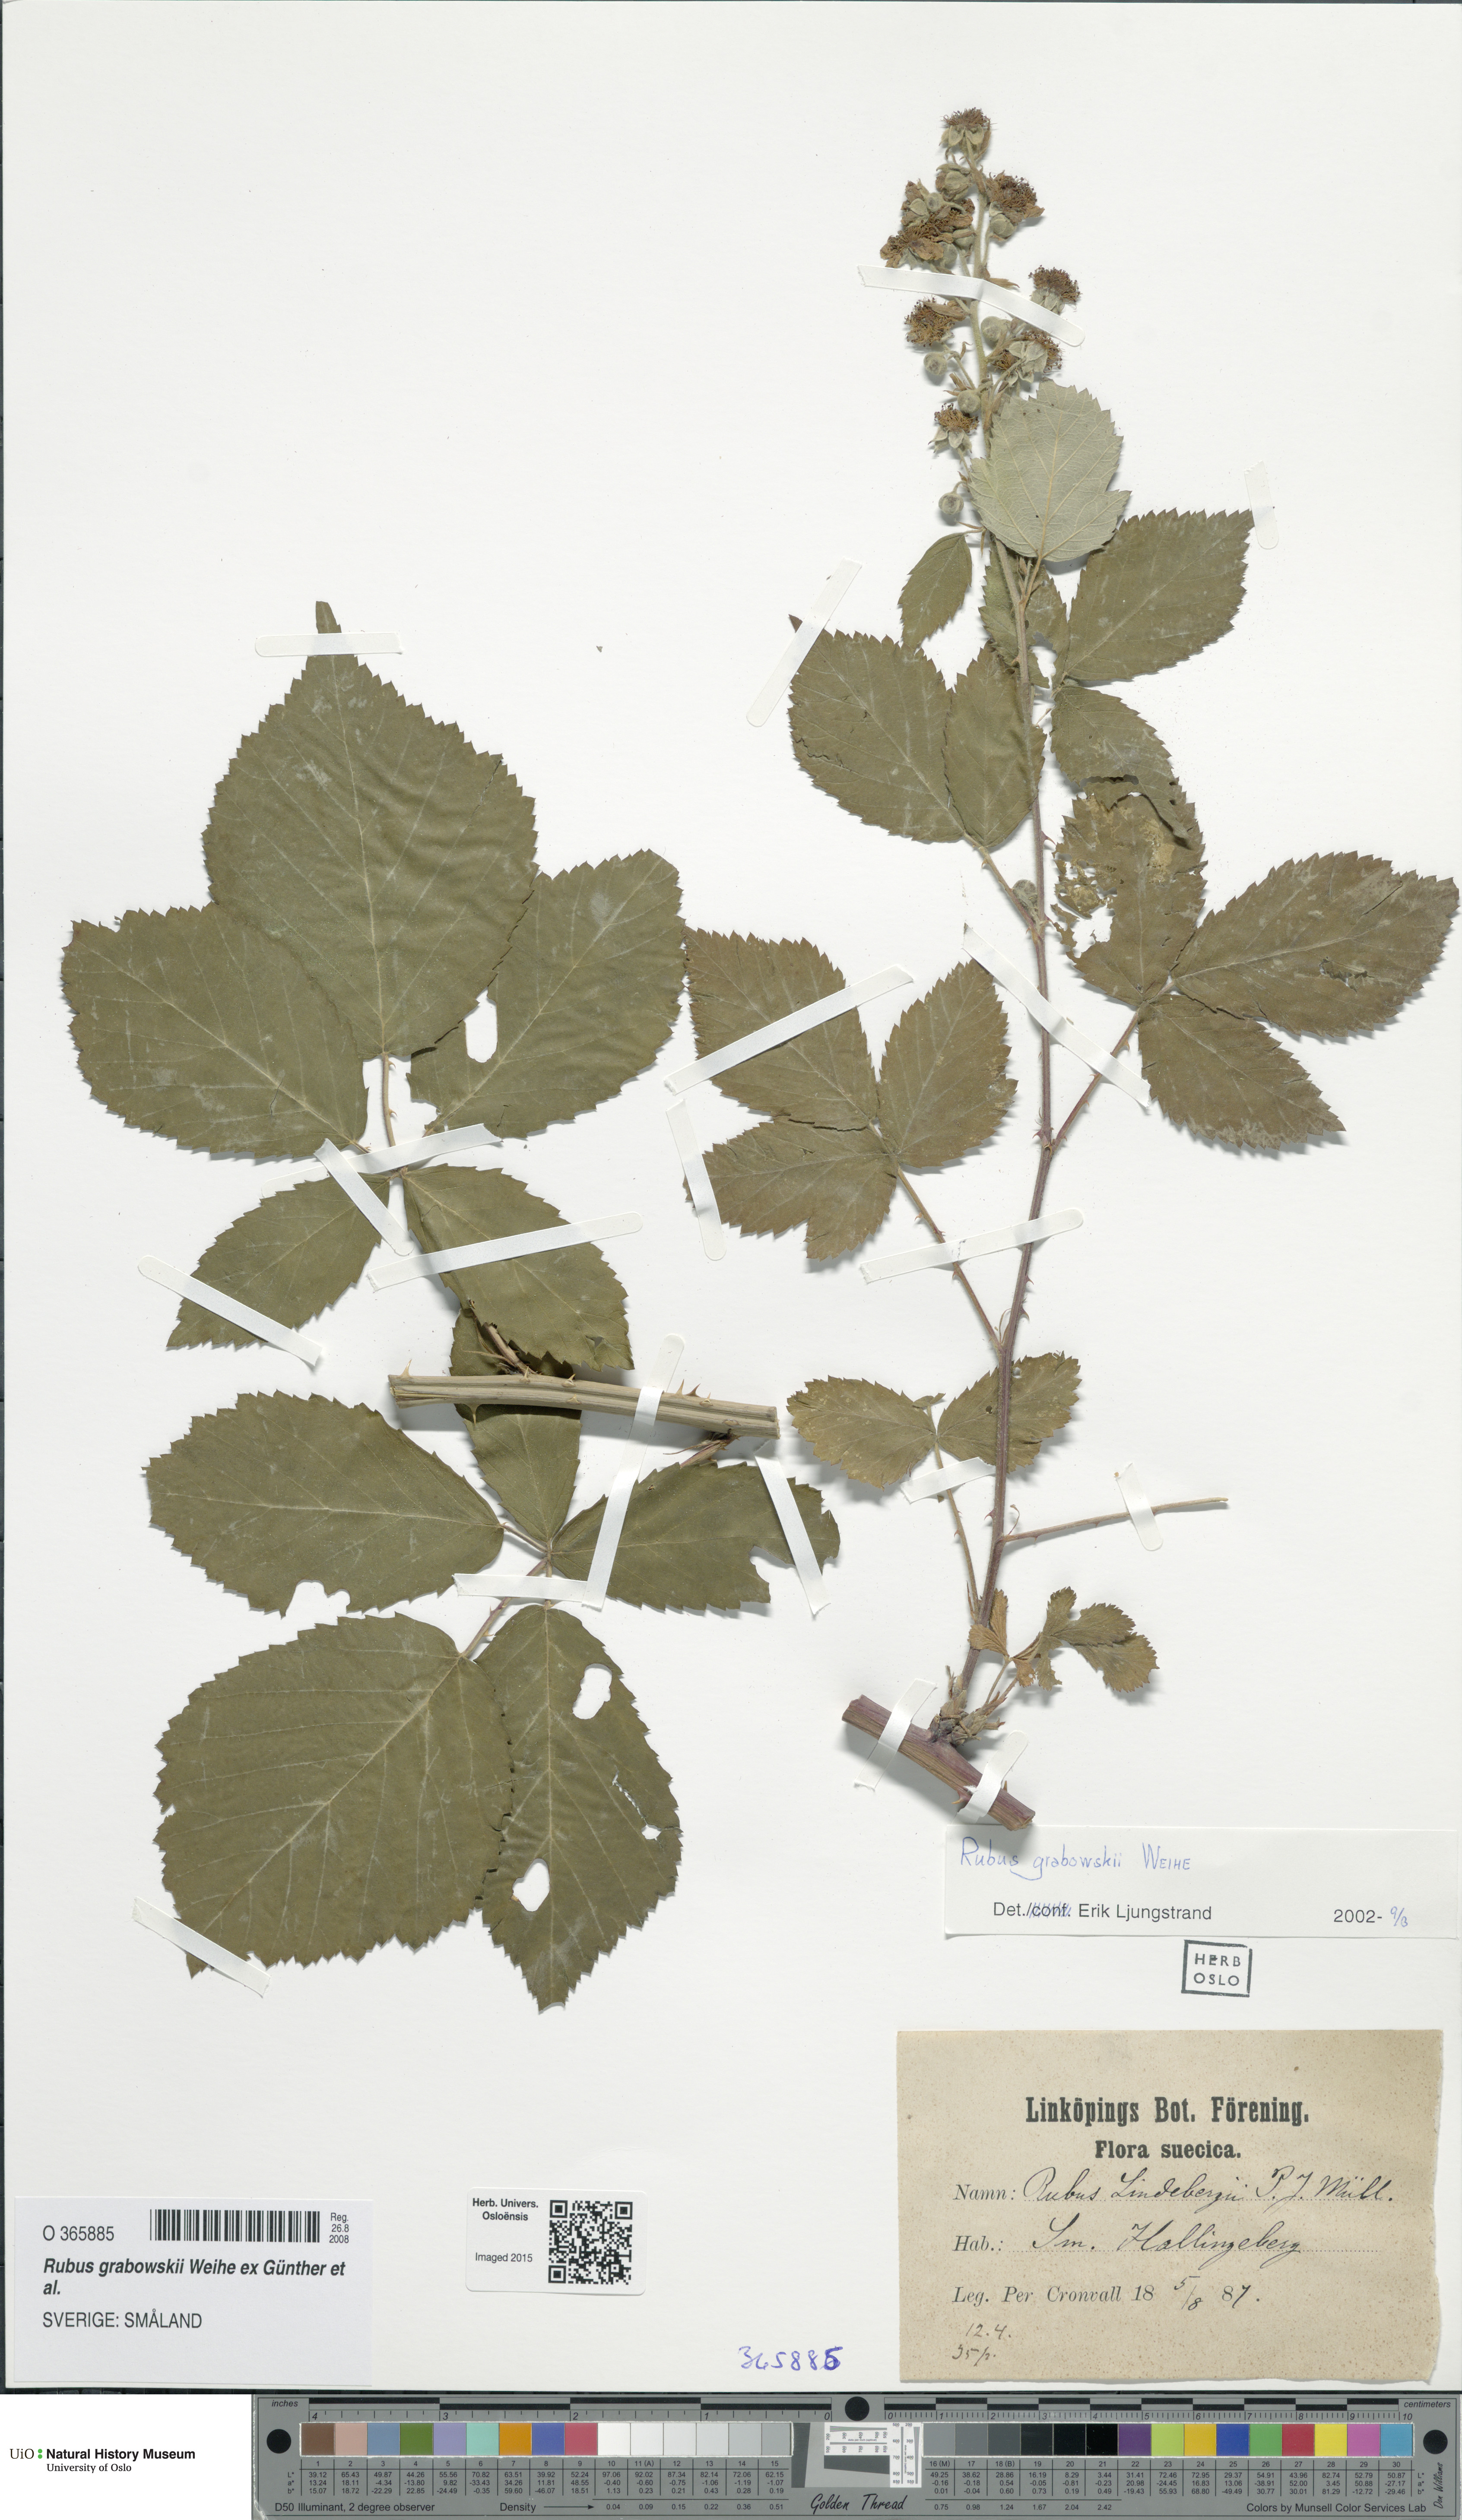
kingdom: Plantae
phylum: Tracheophyta
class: Magnoliopsida
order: Rosales
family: Rosaceae
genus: Rubus
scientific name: Rubus grabowskii
